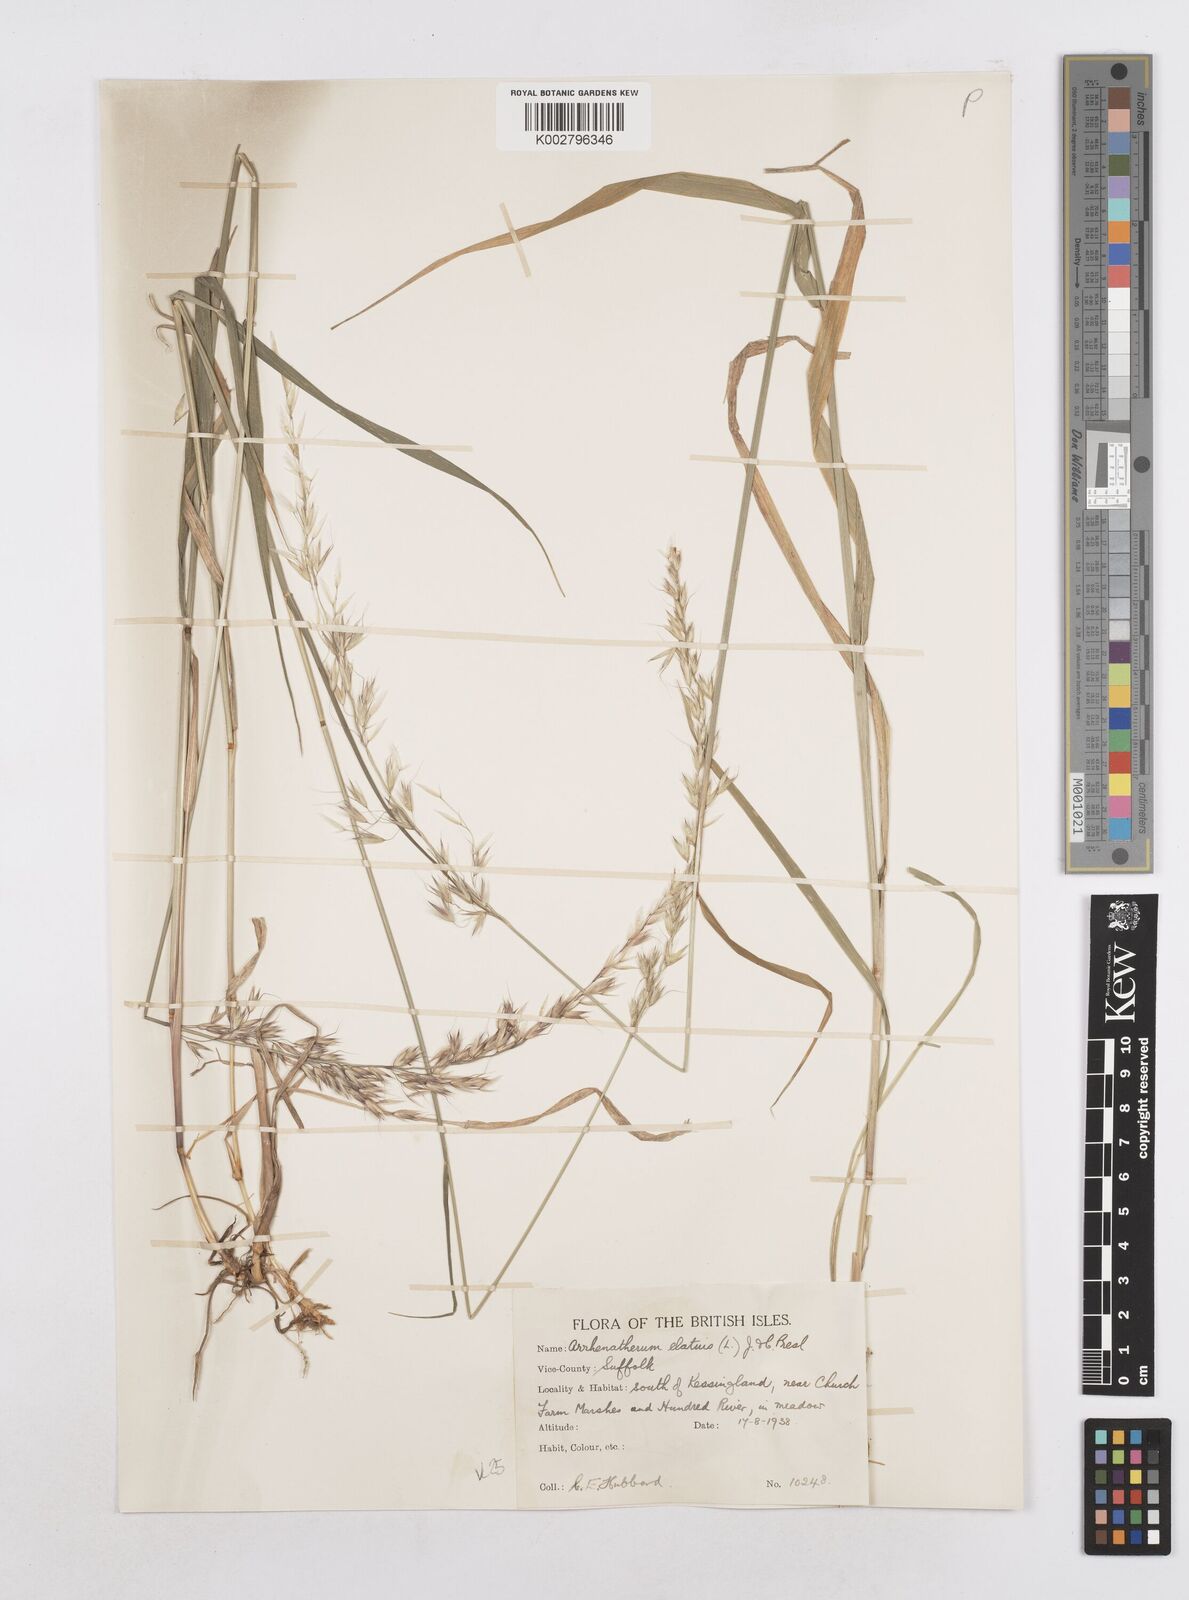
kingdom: Plantae
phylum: Tracheophyta
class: Liliopsida
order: Poales
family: Poaceae
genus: Arrhenatherum
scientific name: Arrhenatherum elatius
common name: Tall oatgrass
